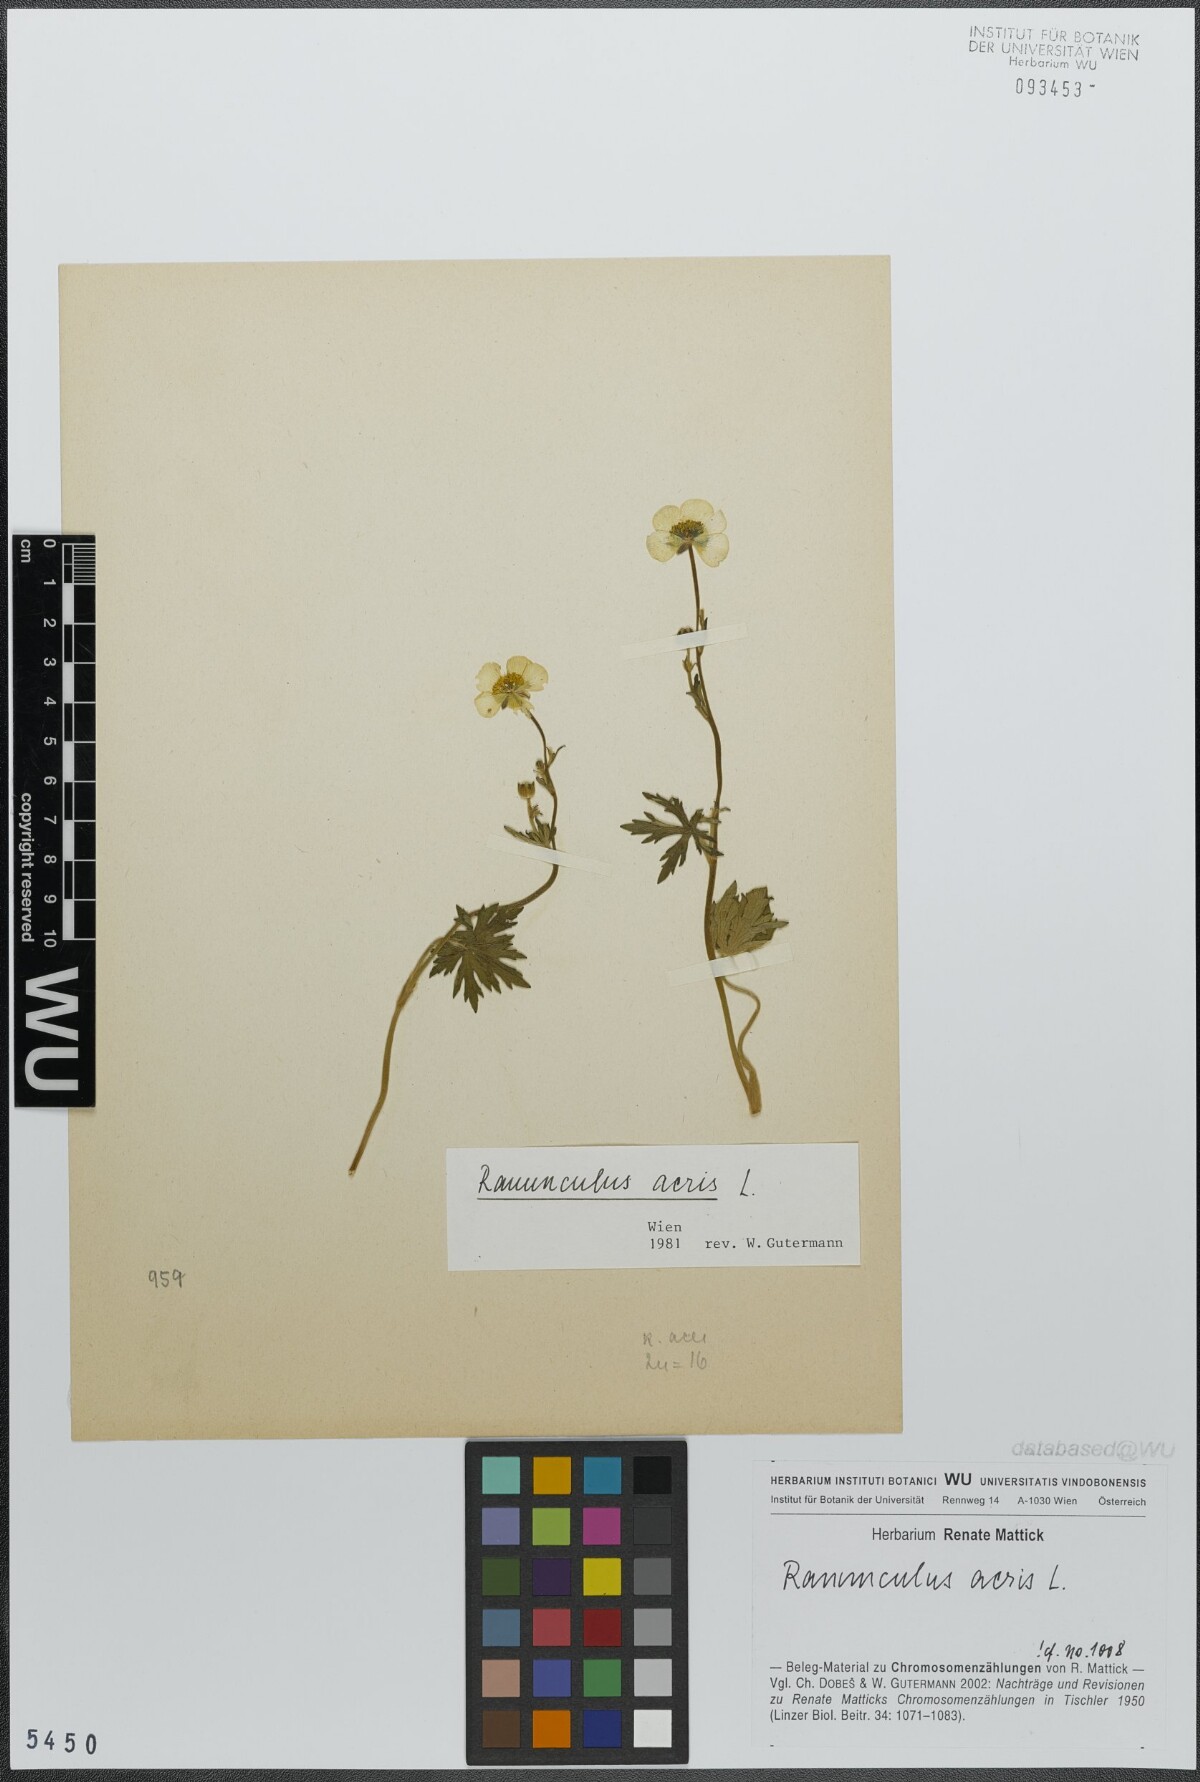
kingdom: Plantae
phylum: Tracheophyta
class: Magnoliopsida
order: Ranunculales
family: Ranunculaceae
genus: Ranunculus
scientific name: Ranunculus acris
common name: Meadow buttercup
